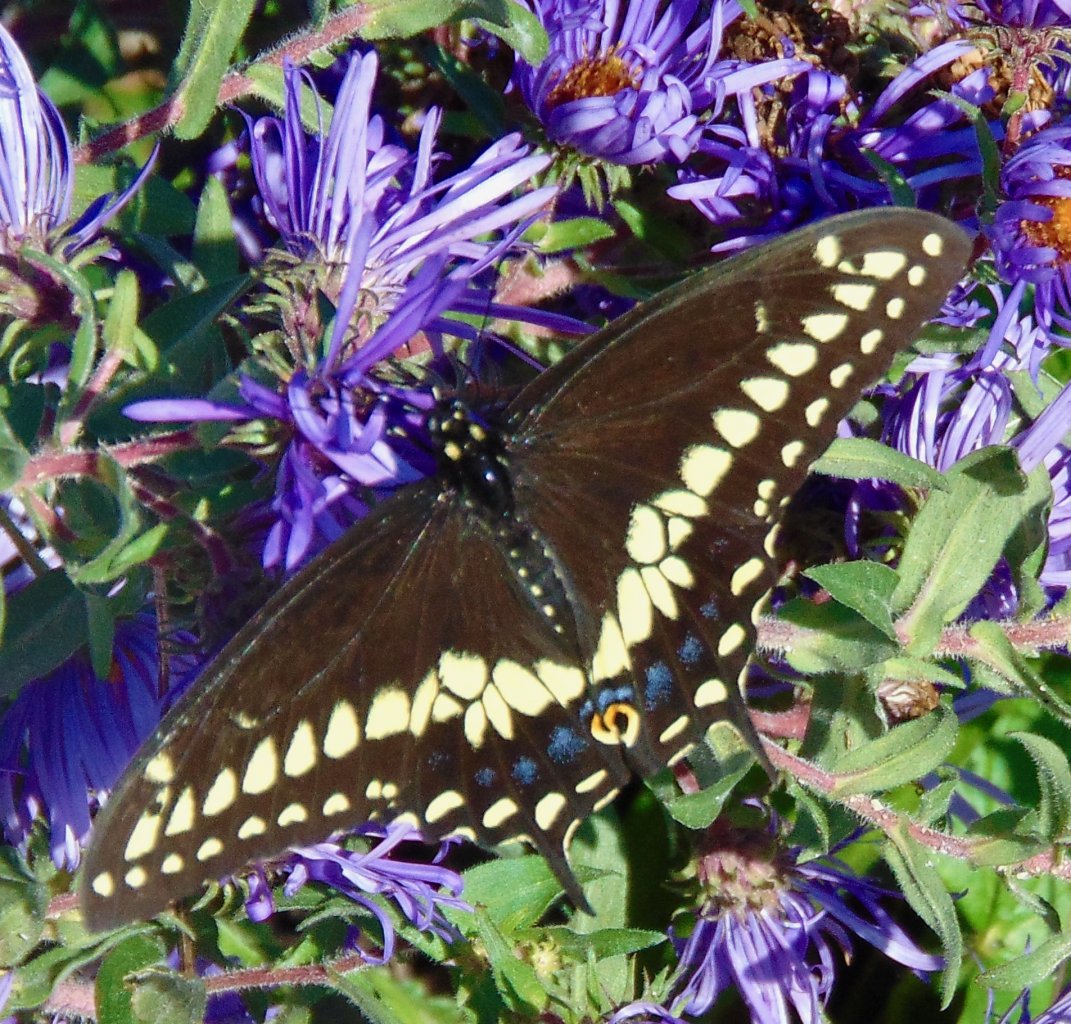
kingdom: Animalia
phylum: Arthropoda
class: Insecta
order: Lepidoptera
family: Papilionidae
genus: Papilio
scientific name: Papilio polyxenes
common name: Black Swallowtail
